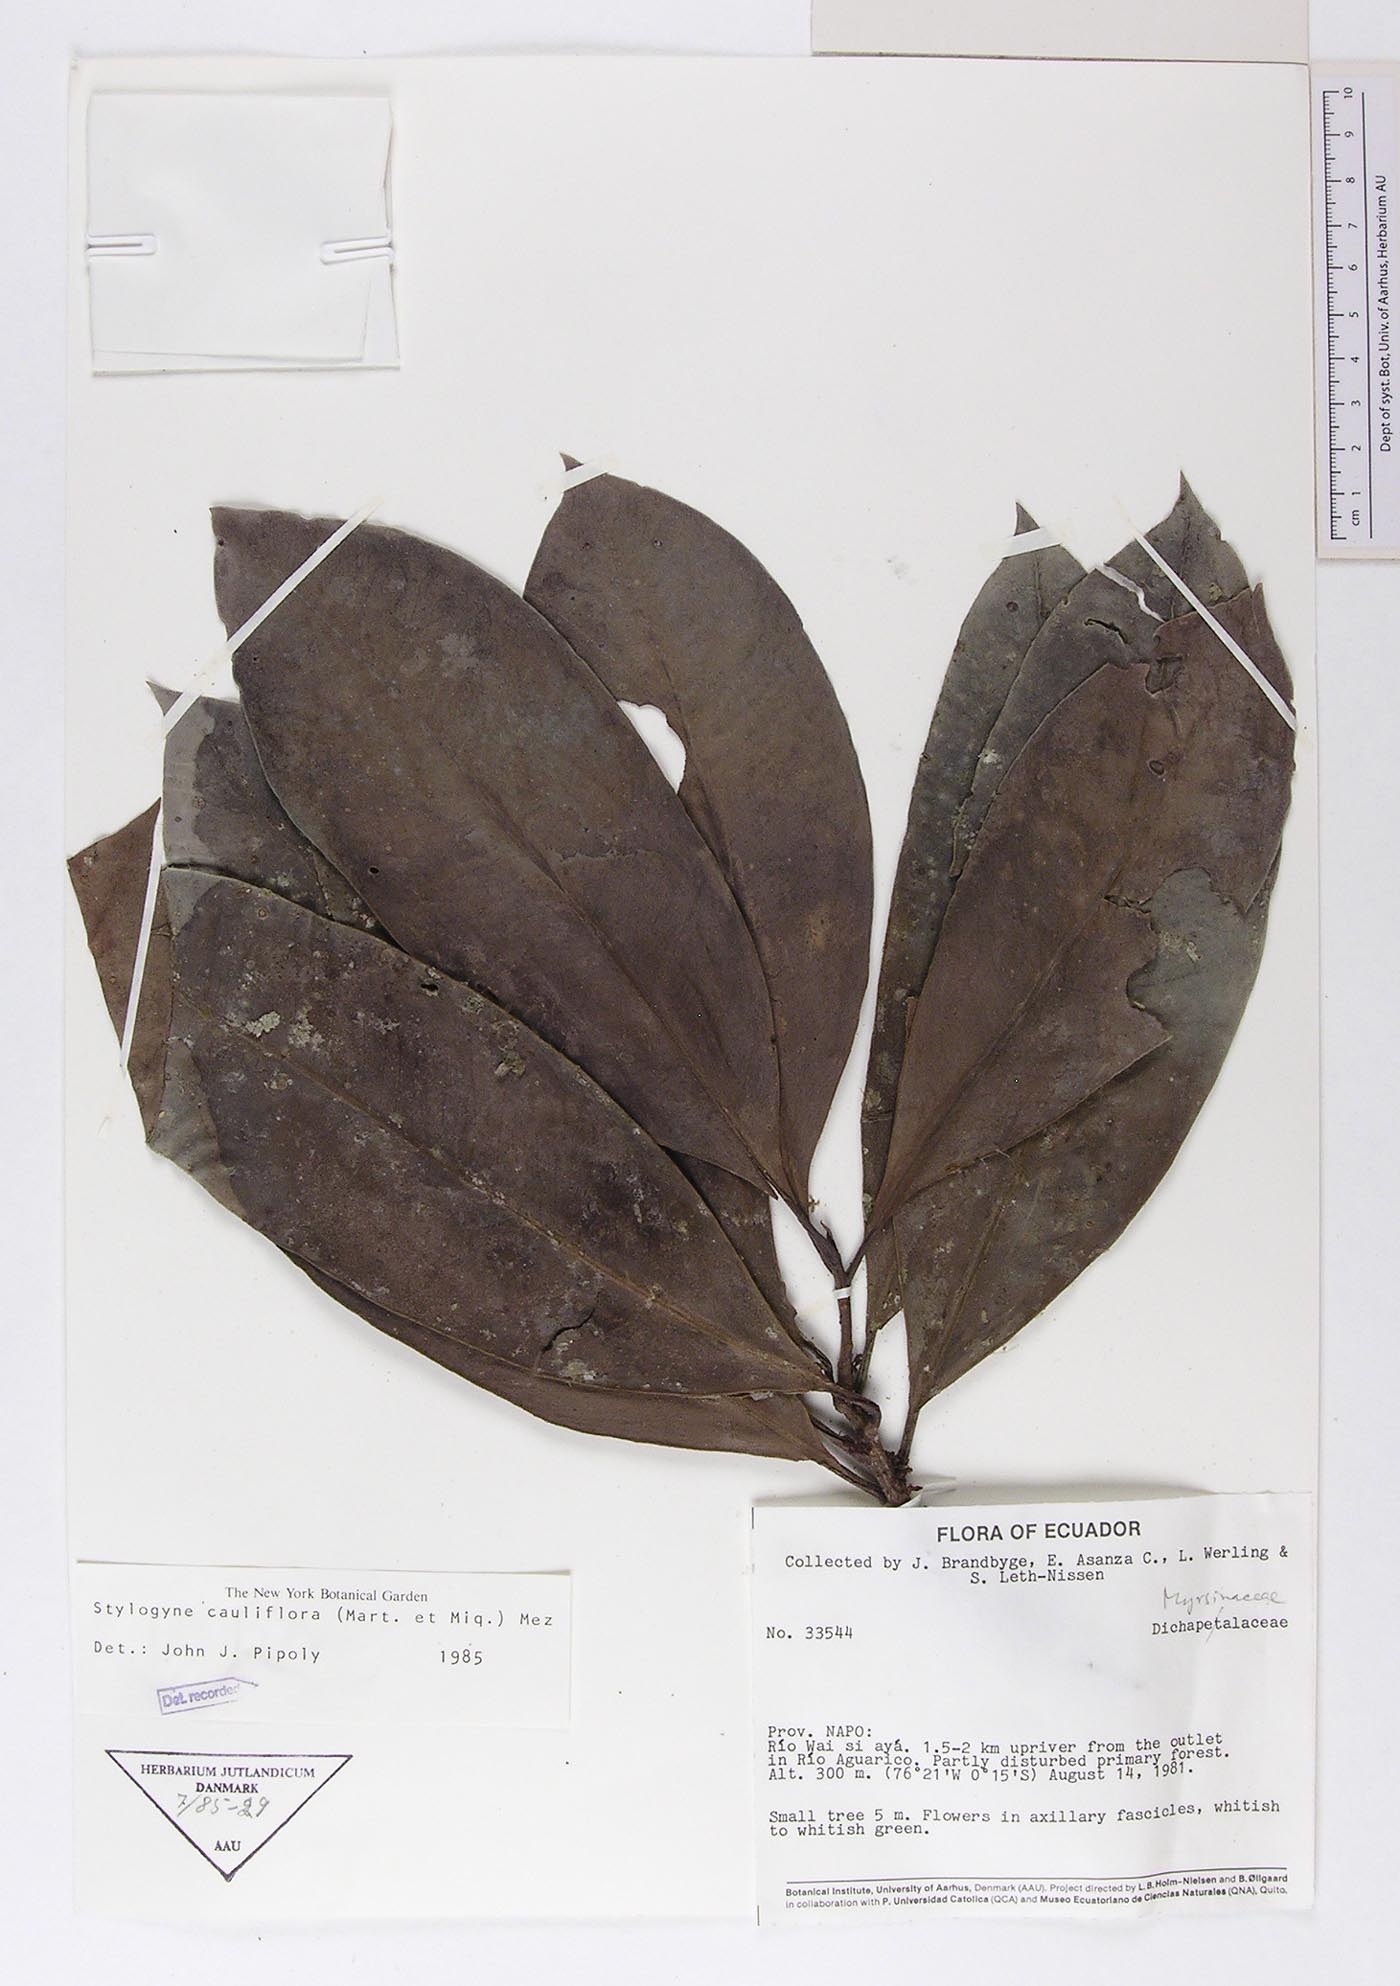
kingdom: Plantae
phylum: Tracheophyta
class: Magnoliopsida
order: Ericales
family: Primulaceae
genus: Stylogyne
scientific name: Stylogyne cauliflora
